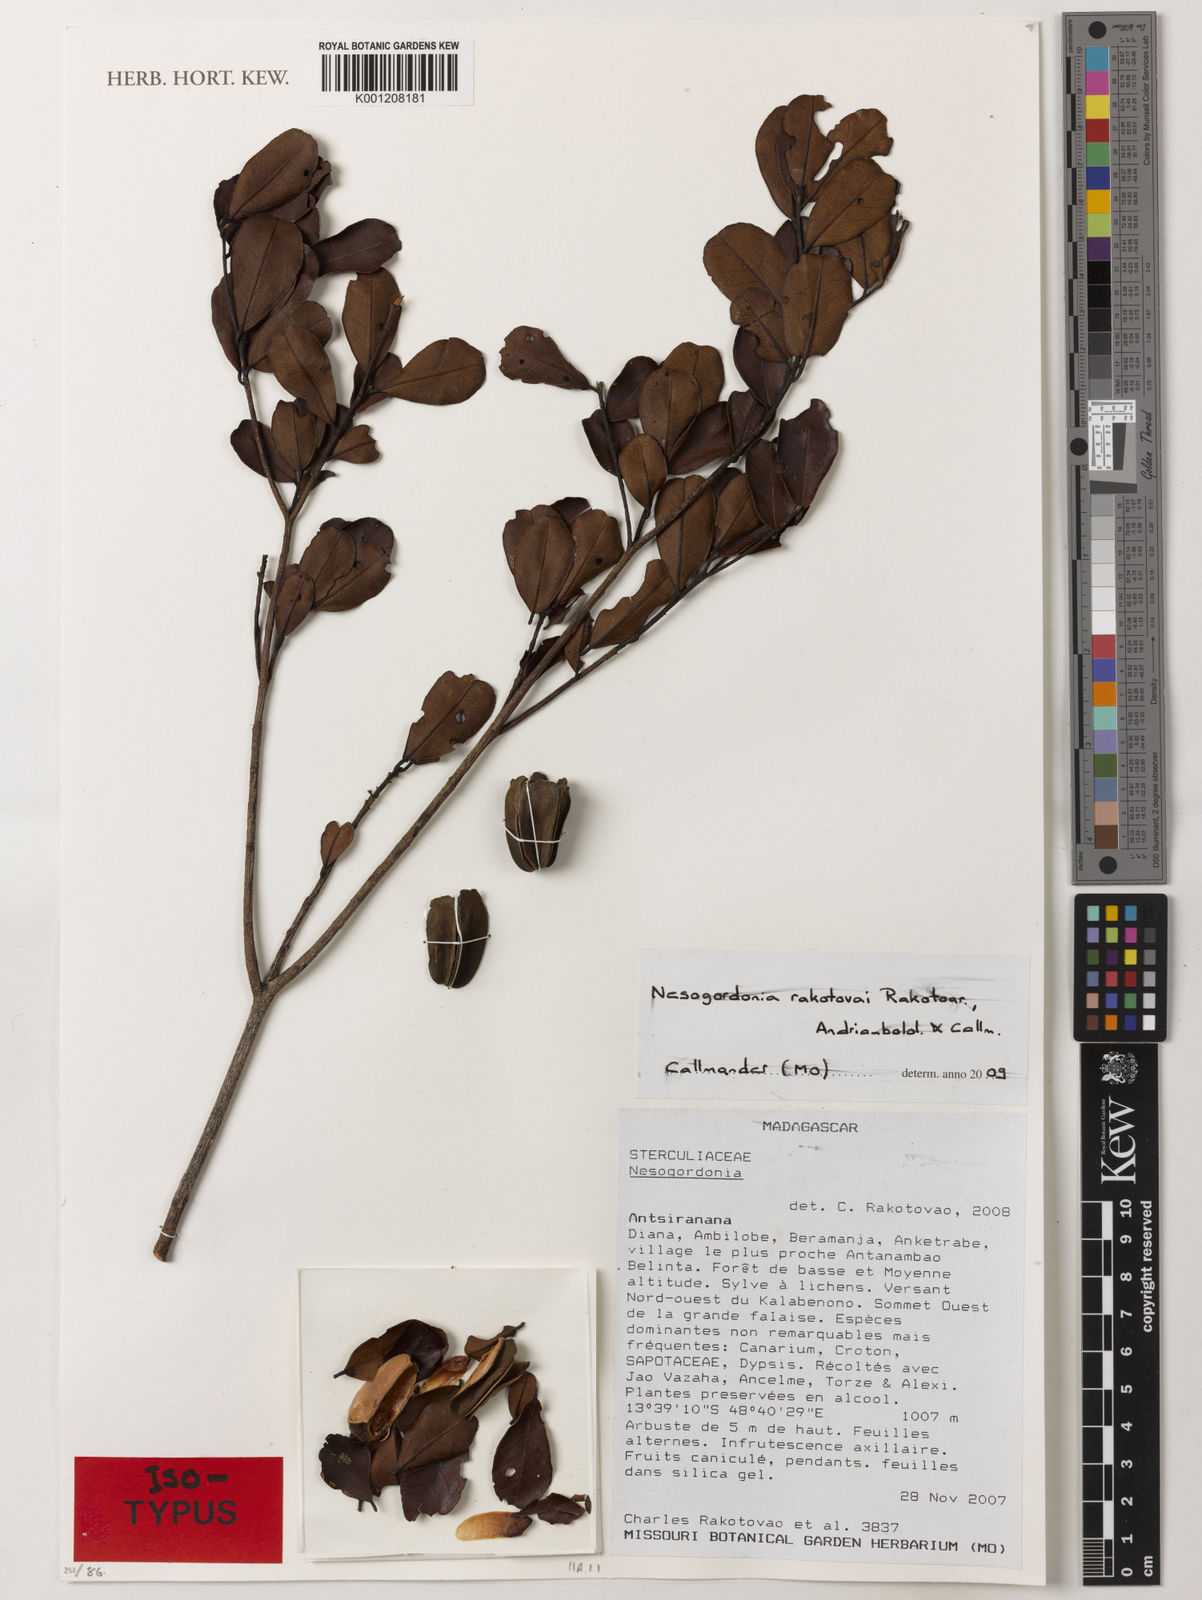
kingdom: Plantae
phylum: Tracheophyta
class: Magnoliopsida
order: Malvales
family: Malvaceae
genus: Nesogordonia
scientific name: Nesogordonia
